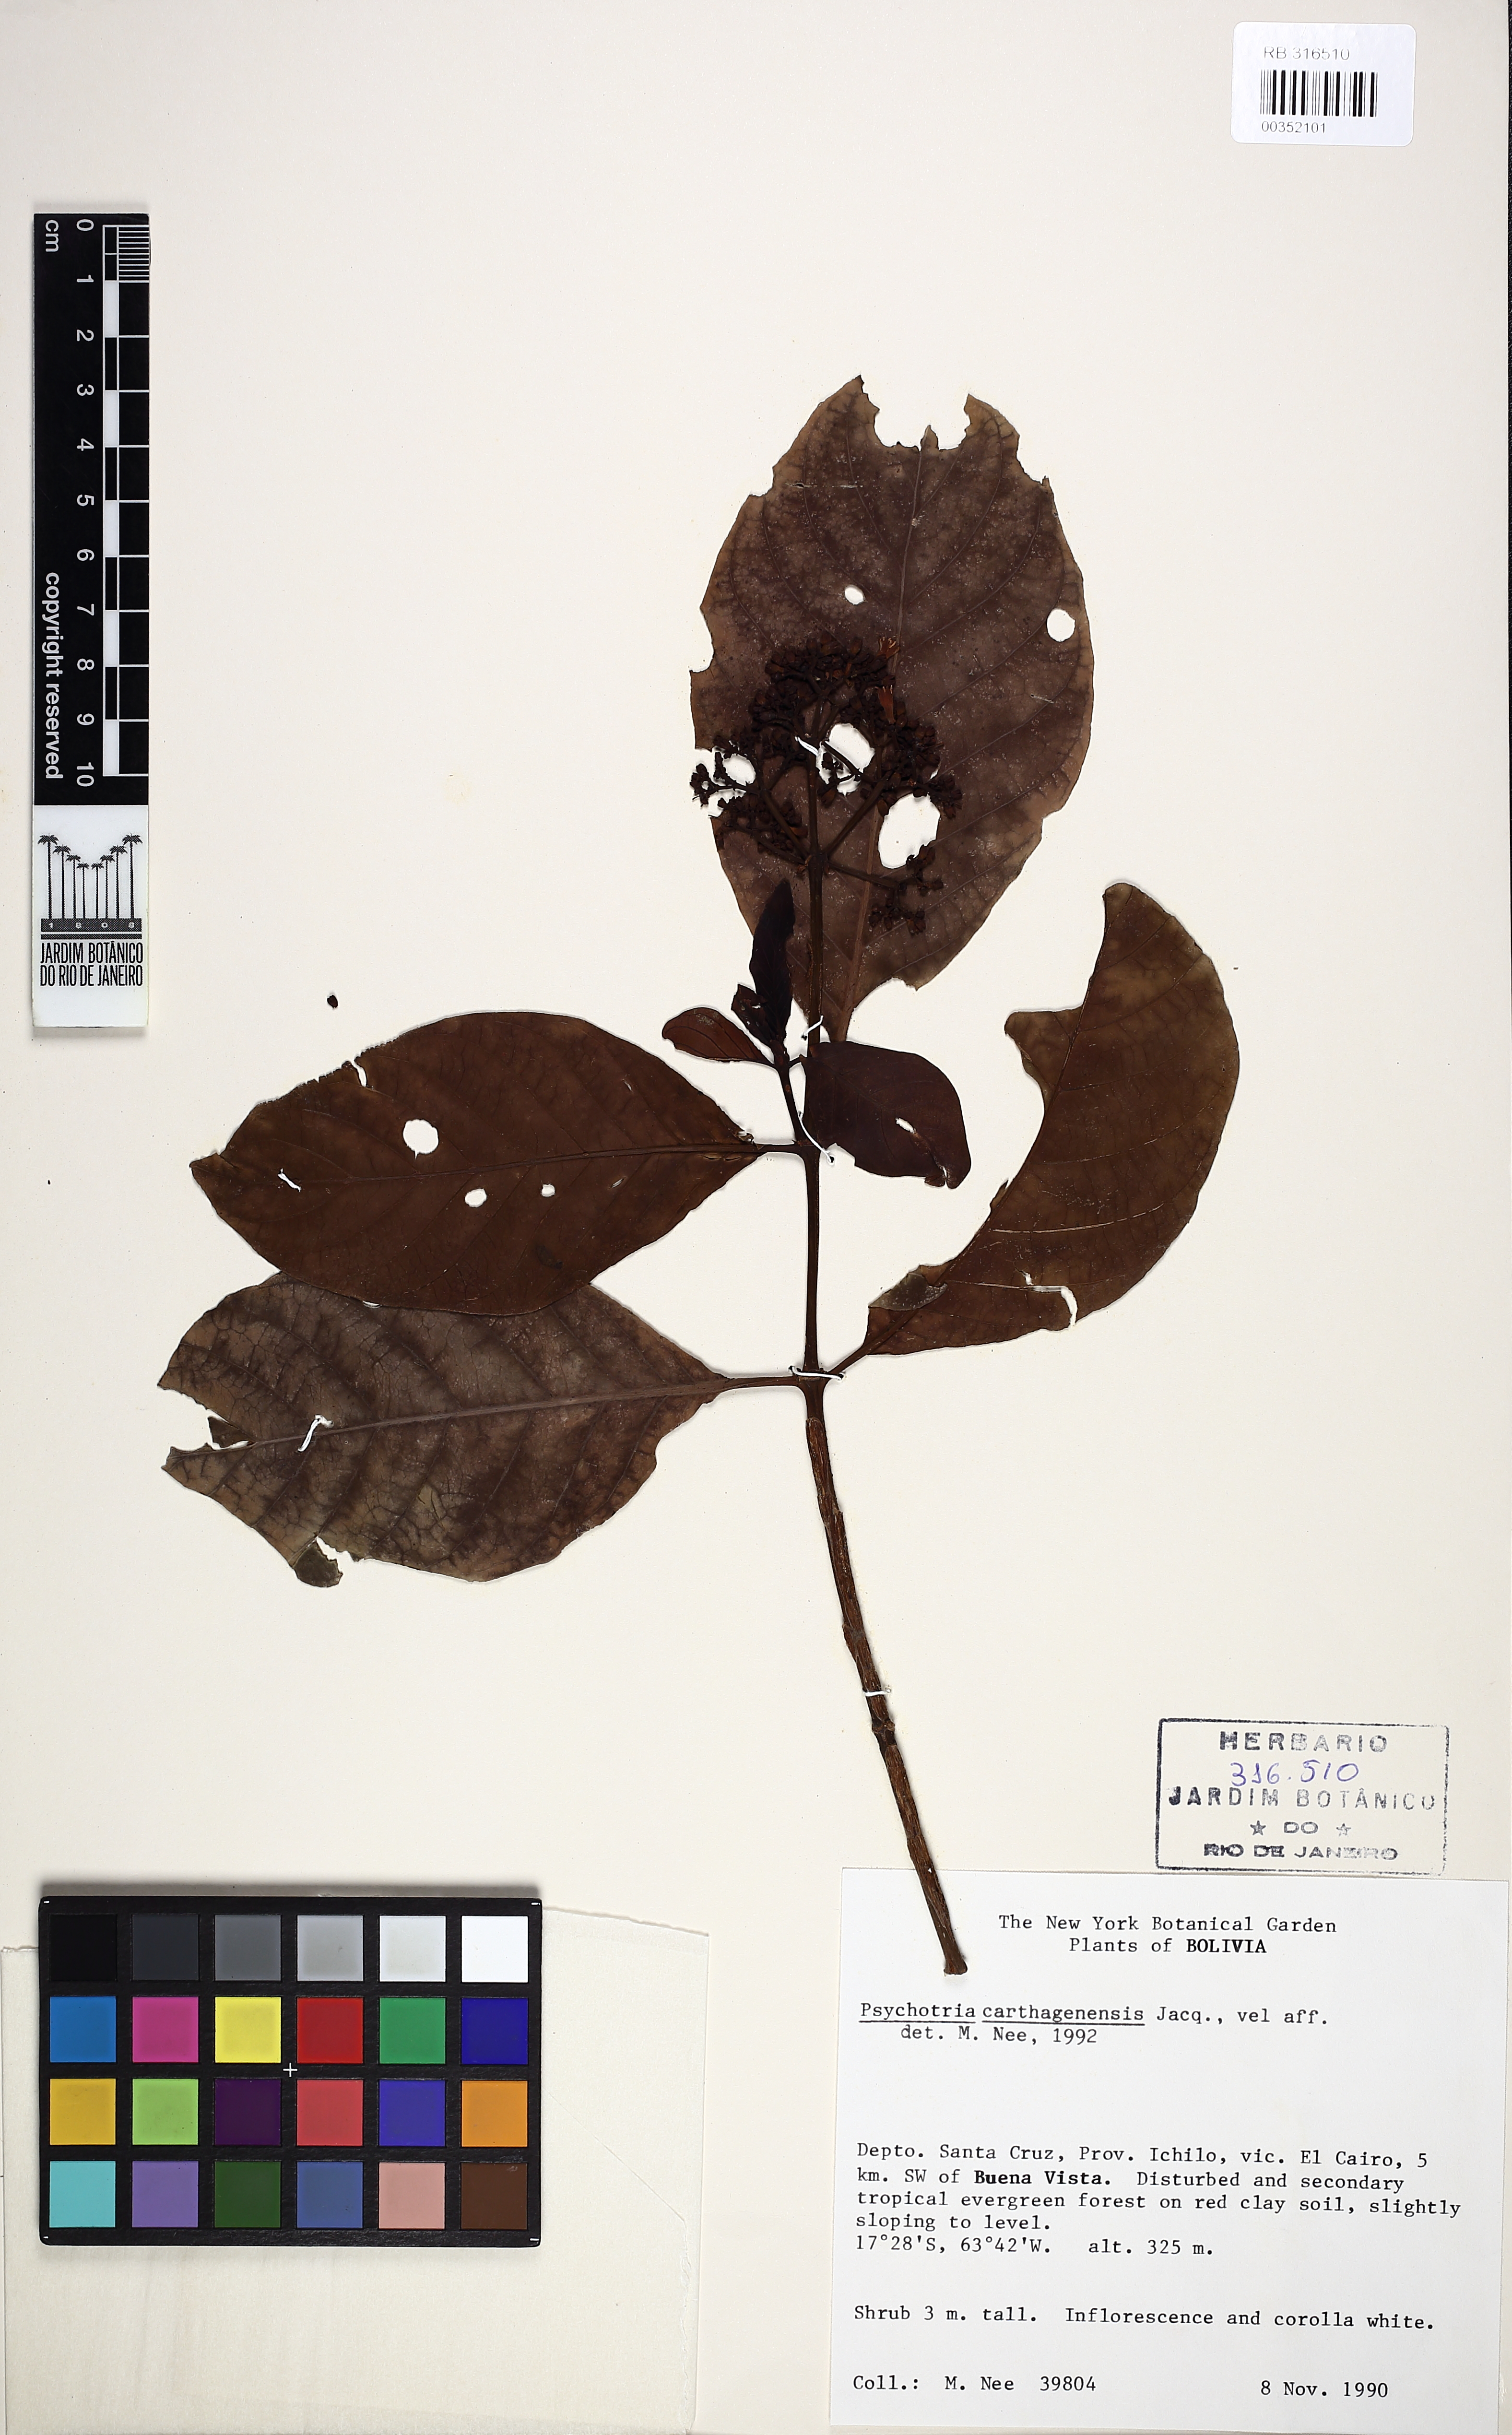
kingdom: Plantae
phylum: Tracheophyta
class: Magnoliopsida
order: Gentianales
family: Rubiaceae
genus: Psychotria
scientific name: Psychotria carthagenensis
